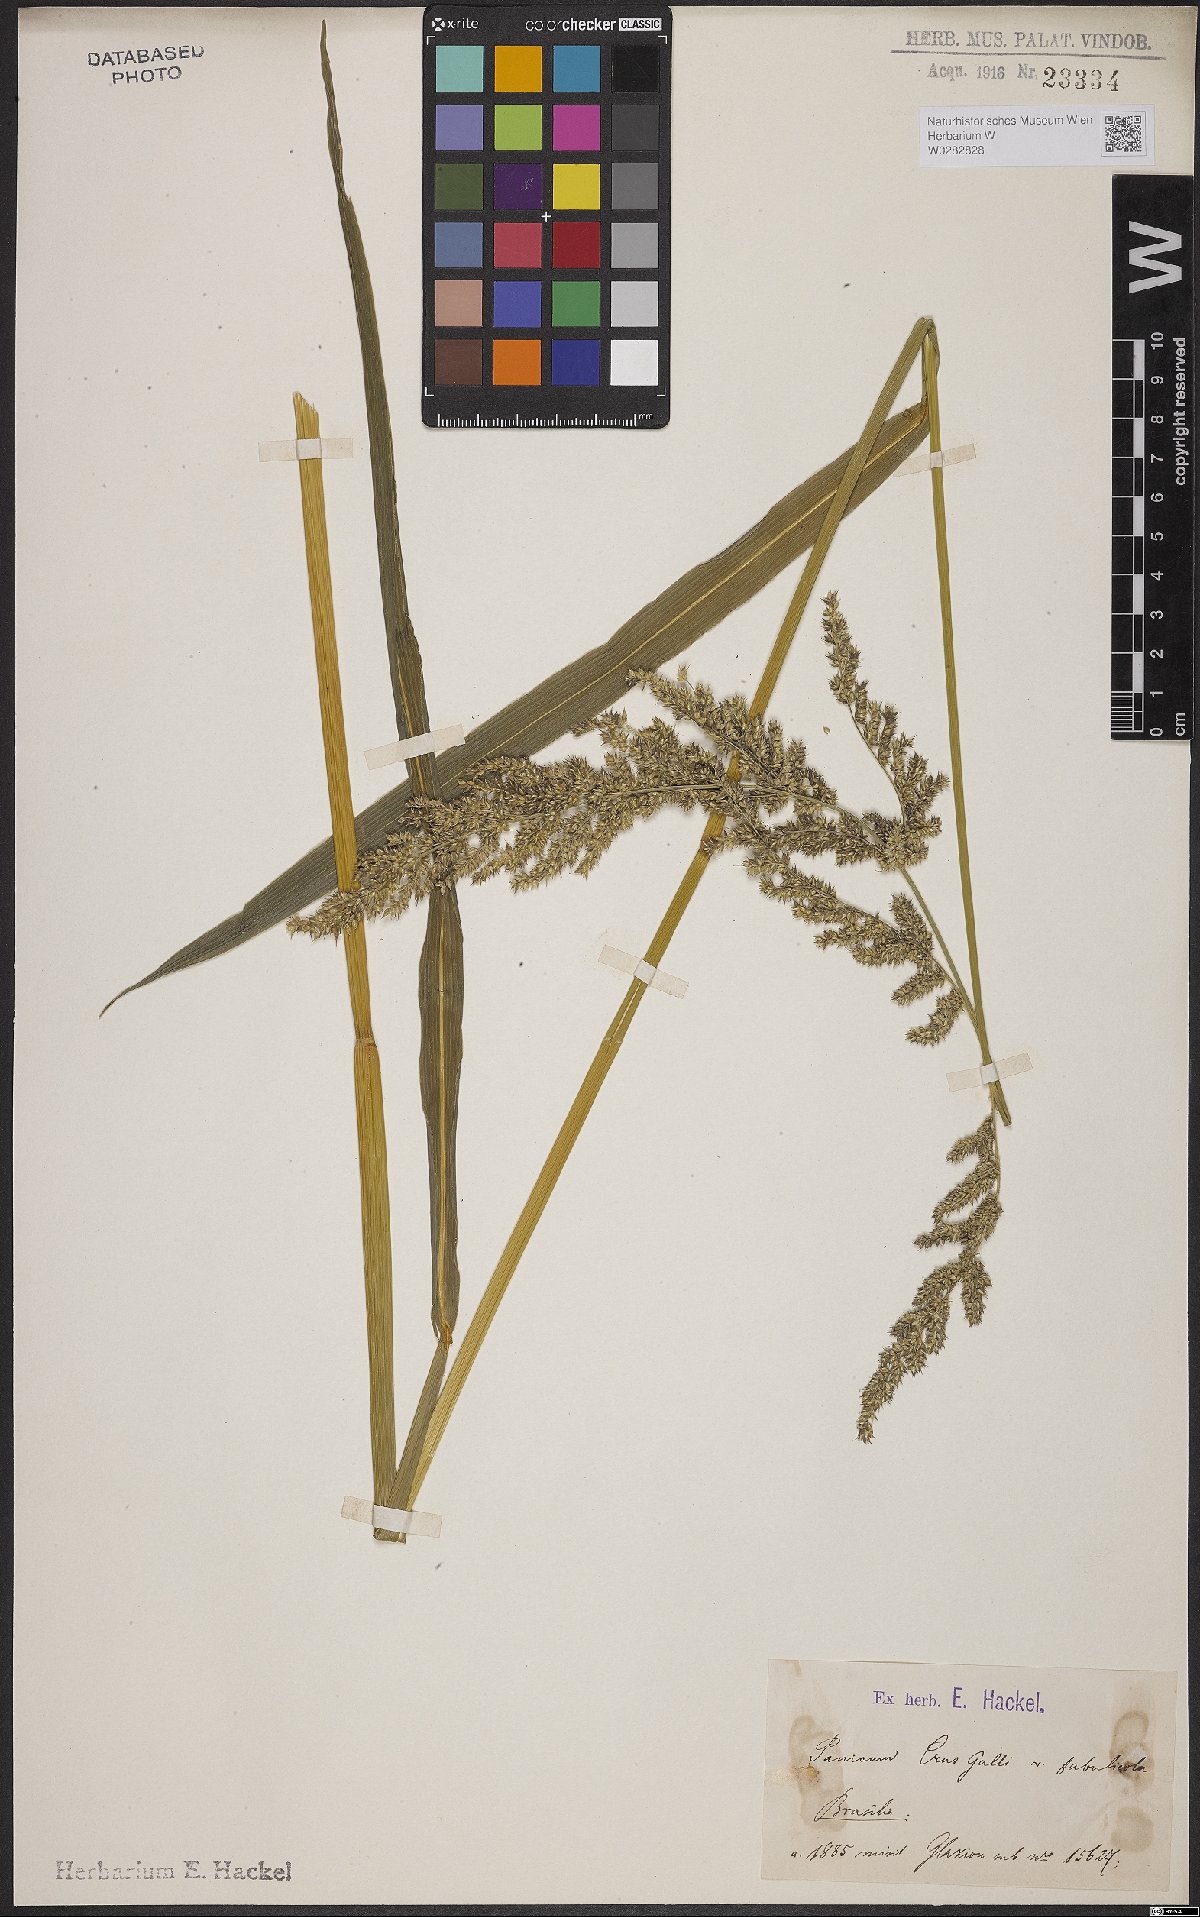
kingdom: Plantae
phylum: Tracheophyta
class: Liliopsida
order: Poales
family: Poaceae
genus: Echinochloa
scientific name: Echinochloa crus-pavonis
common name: Gulf cockspur grass
